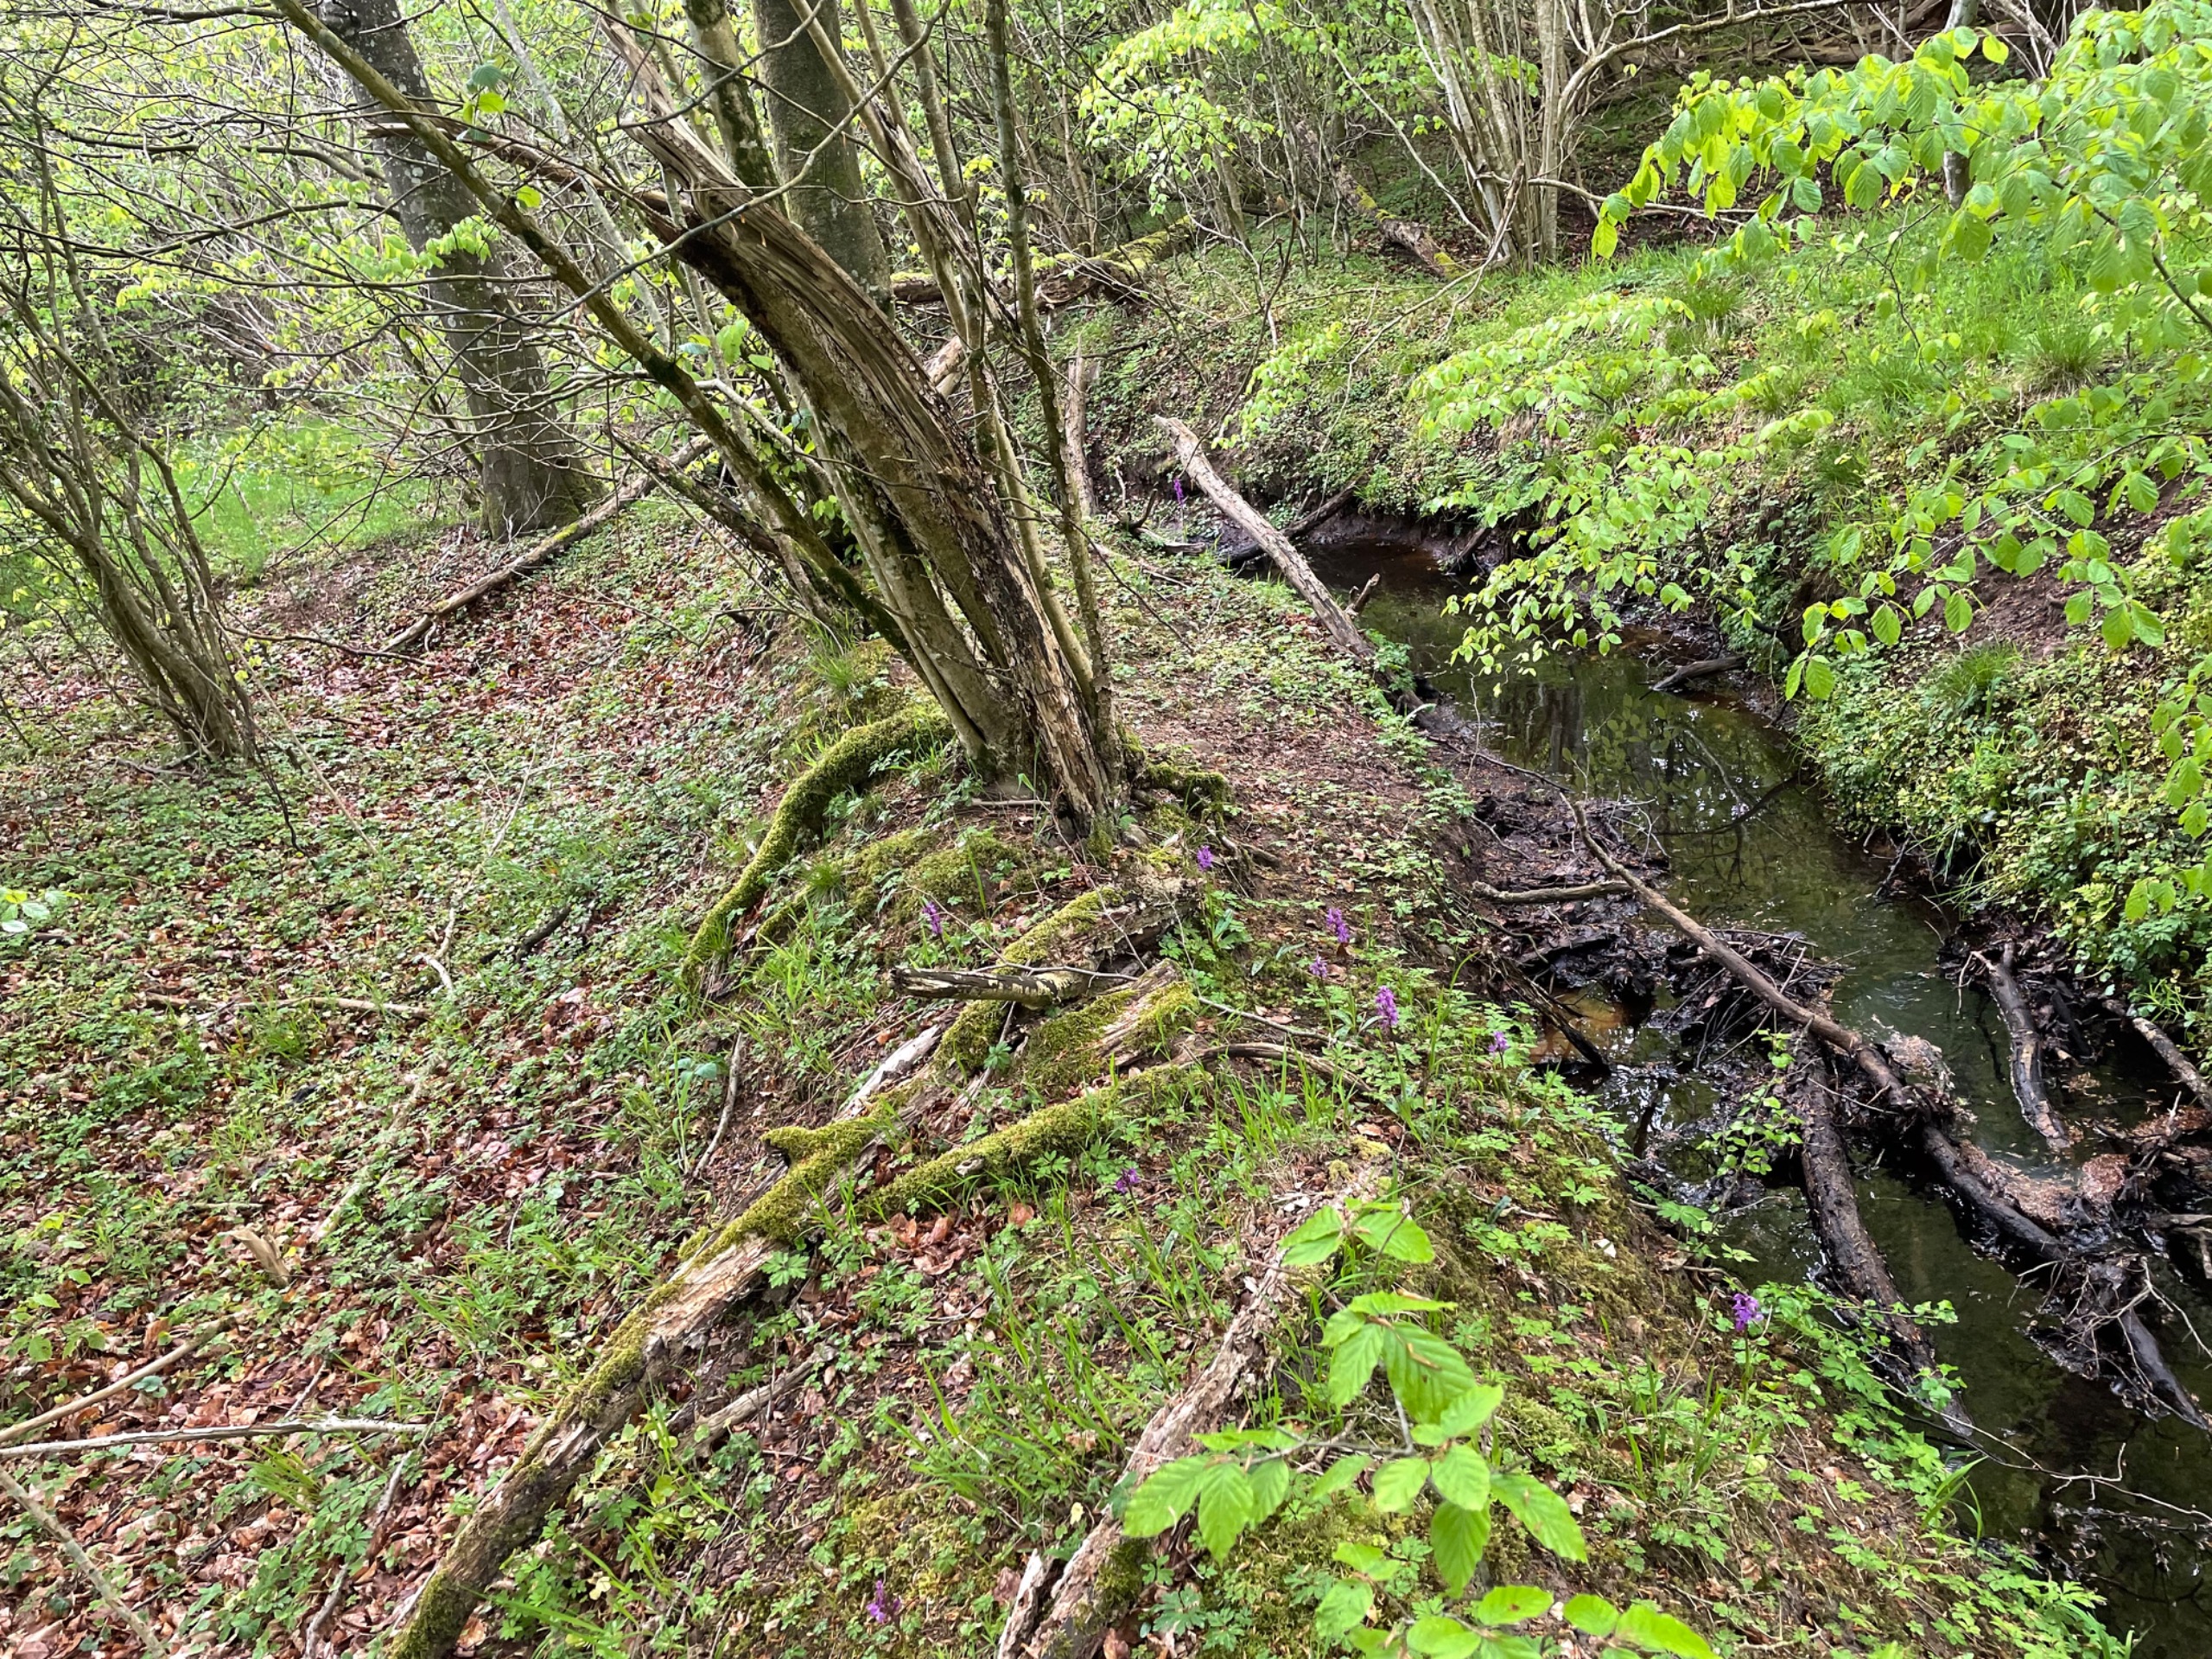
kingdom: Plantae
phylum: Tracheophyta
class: Liliopsida
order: Asparagales
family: Orchidaceae
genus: Orchis
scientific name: Orchis mascula
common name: Tyndakset gøgeurt
